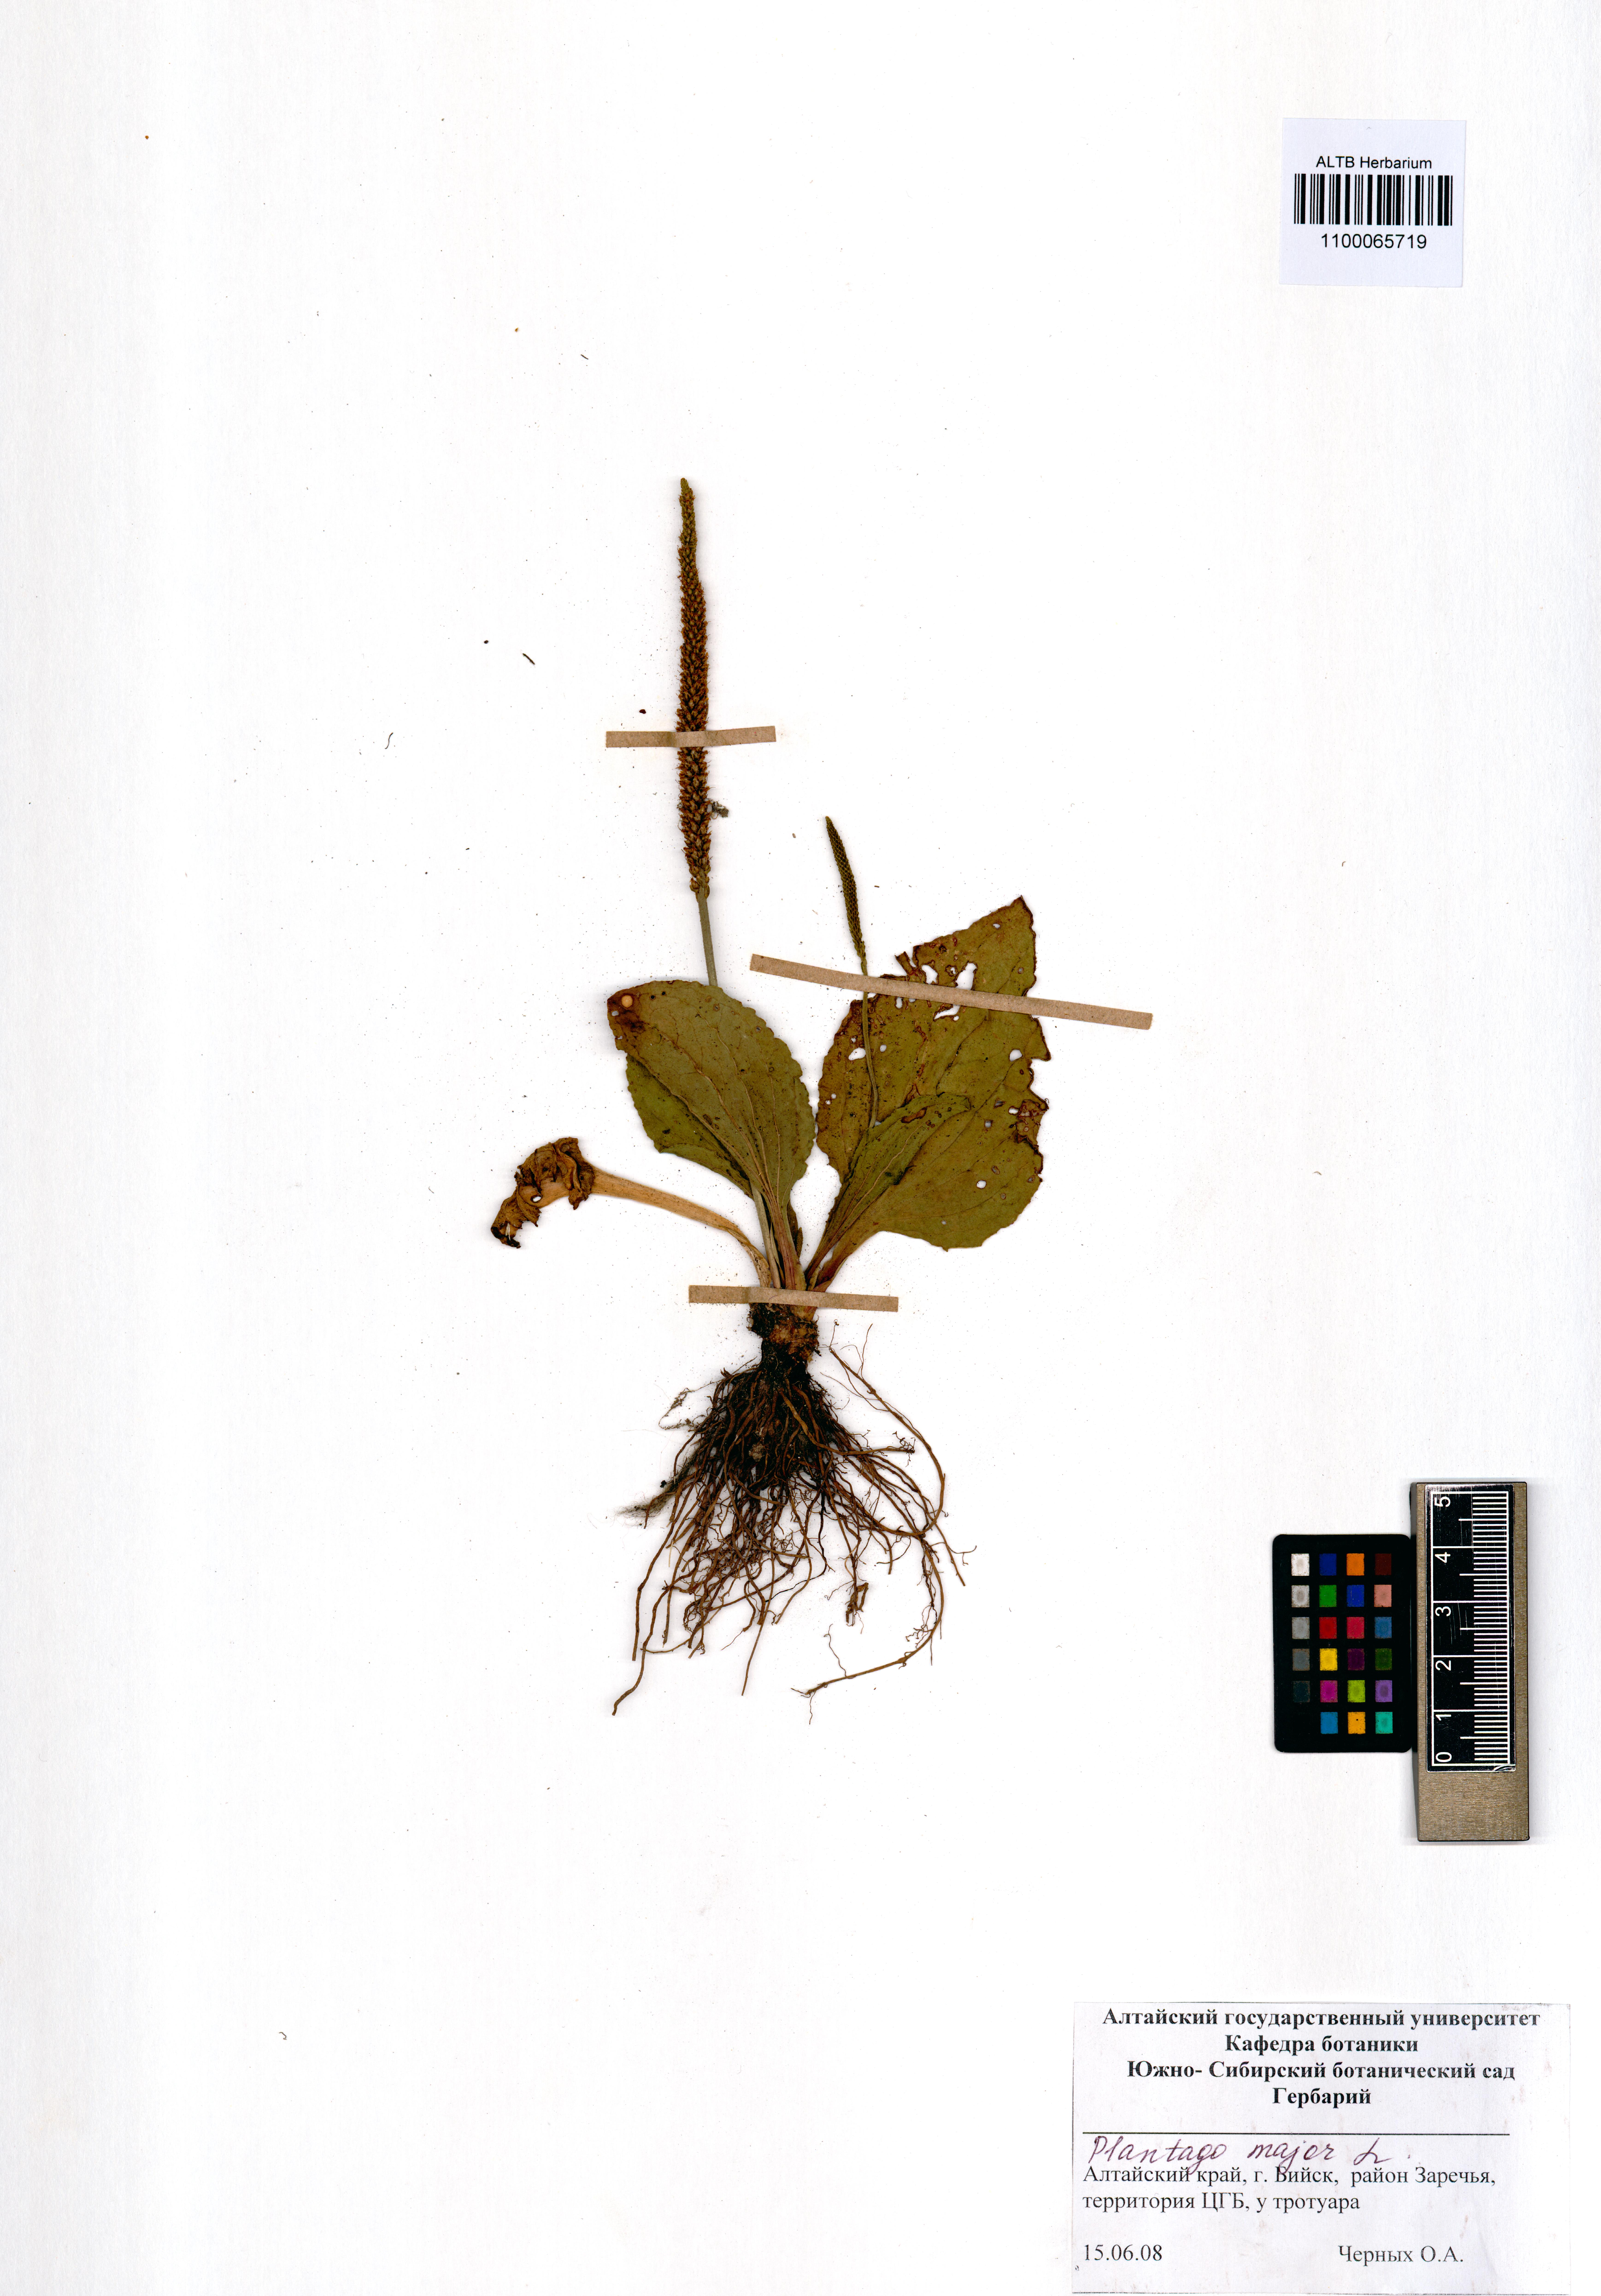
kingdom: Plantae
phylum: Tracheophyta
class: Magnoliopsida
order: Lamiales
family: Plantaginaceae
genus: Plantago
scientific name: Plantago major
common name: Common plantain
